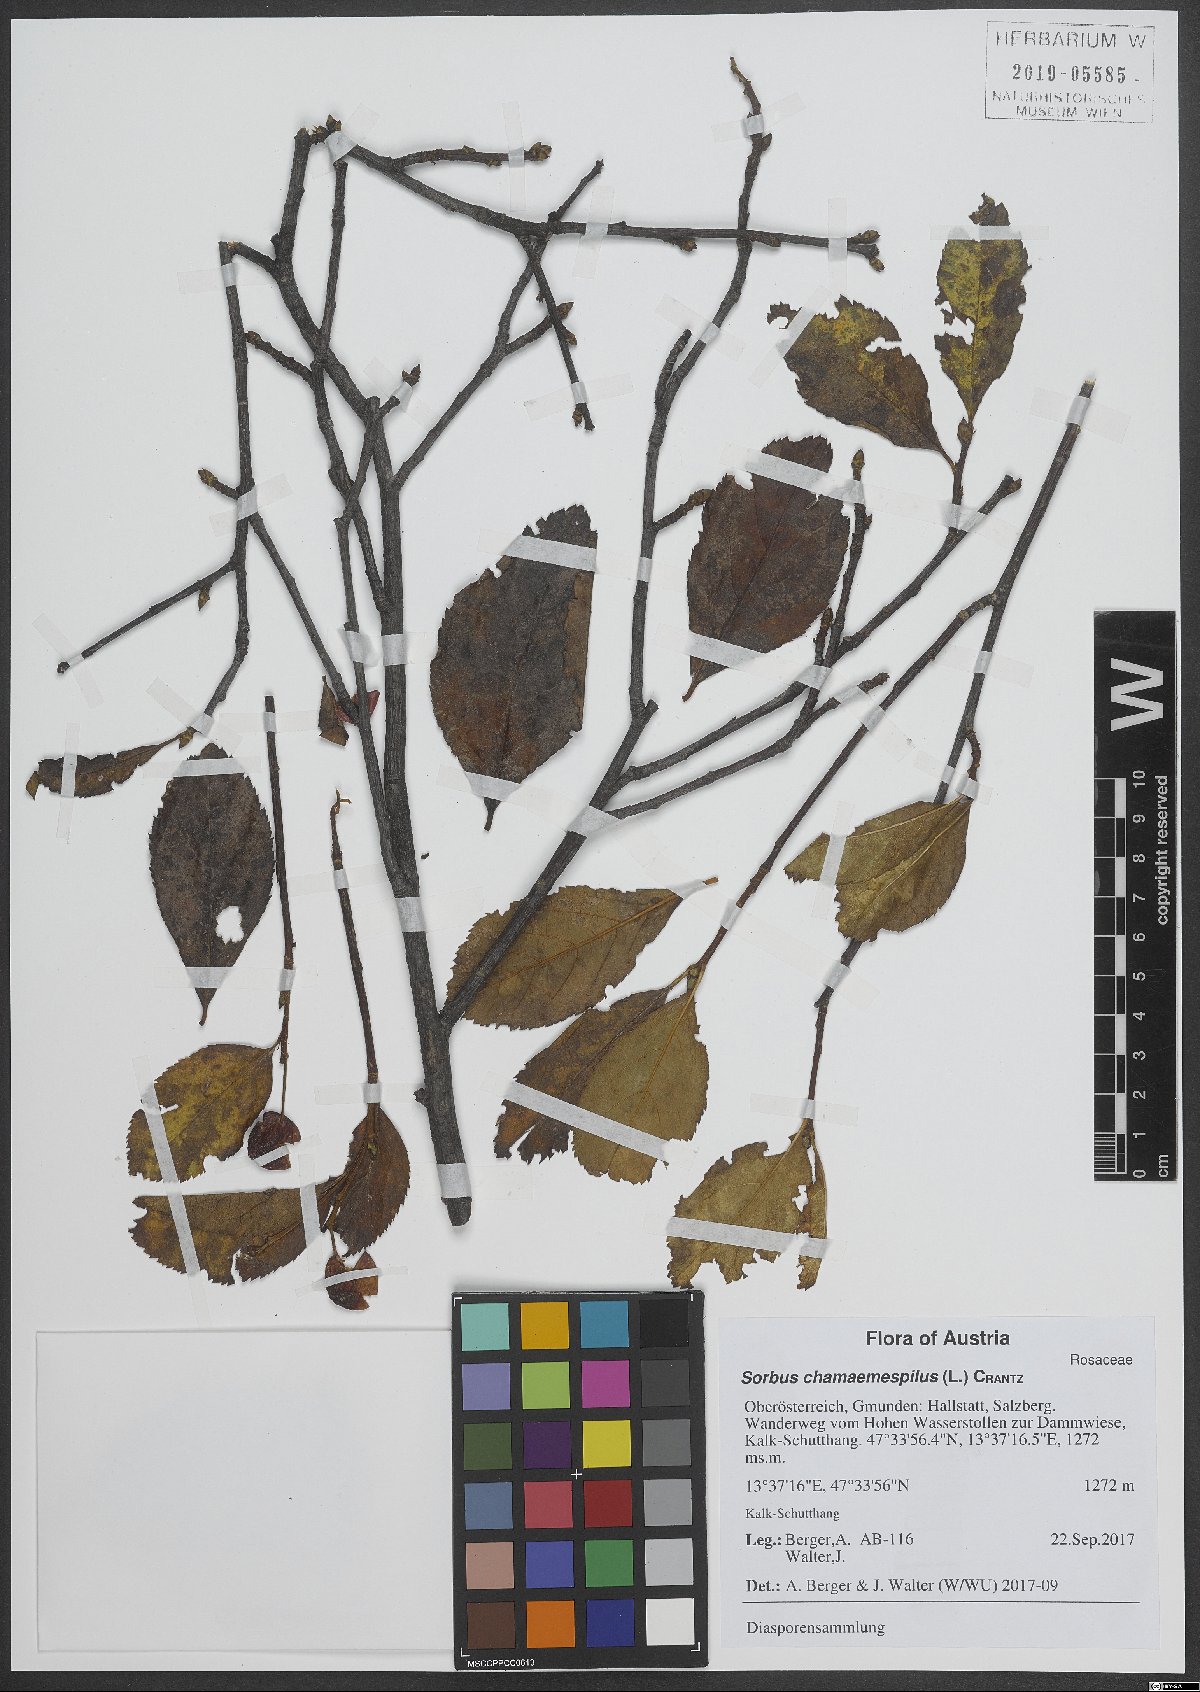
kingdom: Plantae
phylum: Tracheophyta
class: Magnoliopsida
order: Rosales
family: Rosaceae
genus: Chamaemespilus
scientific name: Chamaemespilus alpina
